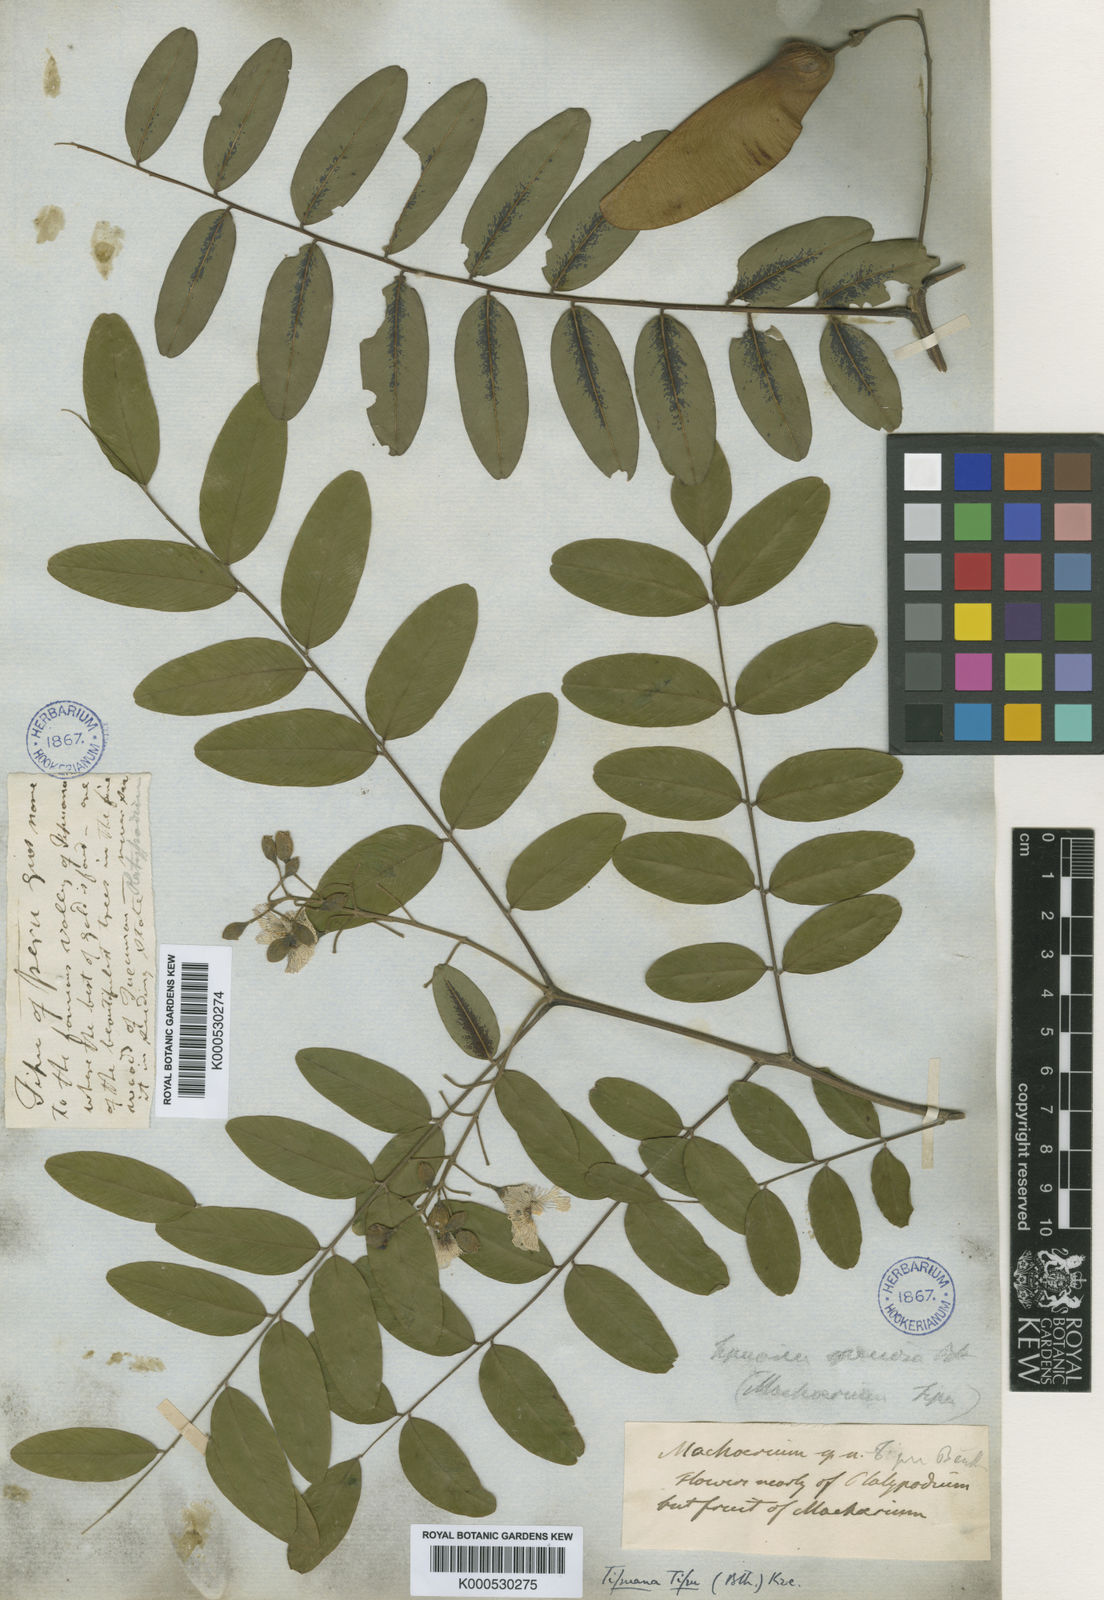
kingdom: Plantae
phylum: Tracheophyta
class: Magnoliopsida
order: Fabales
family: Fabaceae
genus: Tipuana
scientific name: Tipuana tipu
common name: Tiputree
